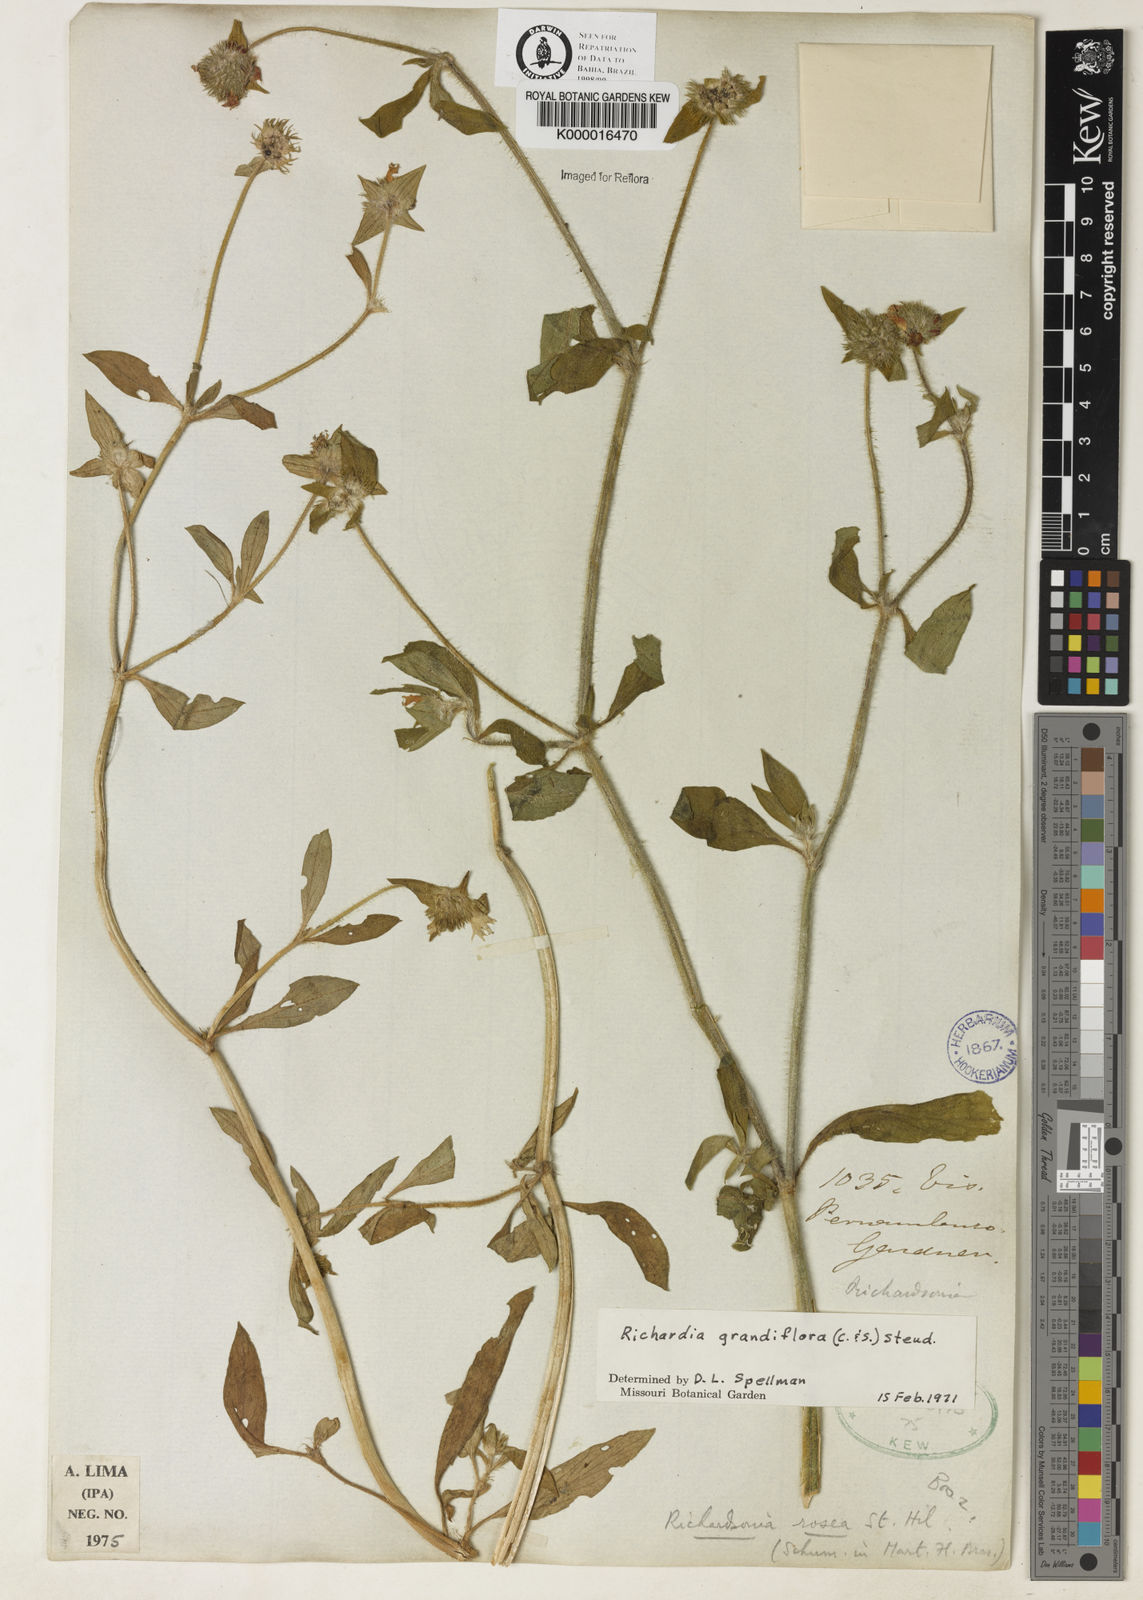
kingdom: Plantae
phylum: Tracheophyta
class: Magnoliopsida
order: Gentianales
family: Rubiaceae
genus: Richardia
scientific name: Richardia grandiflora
